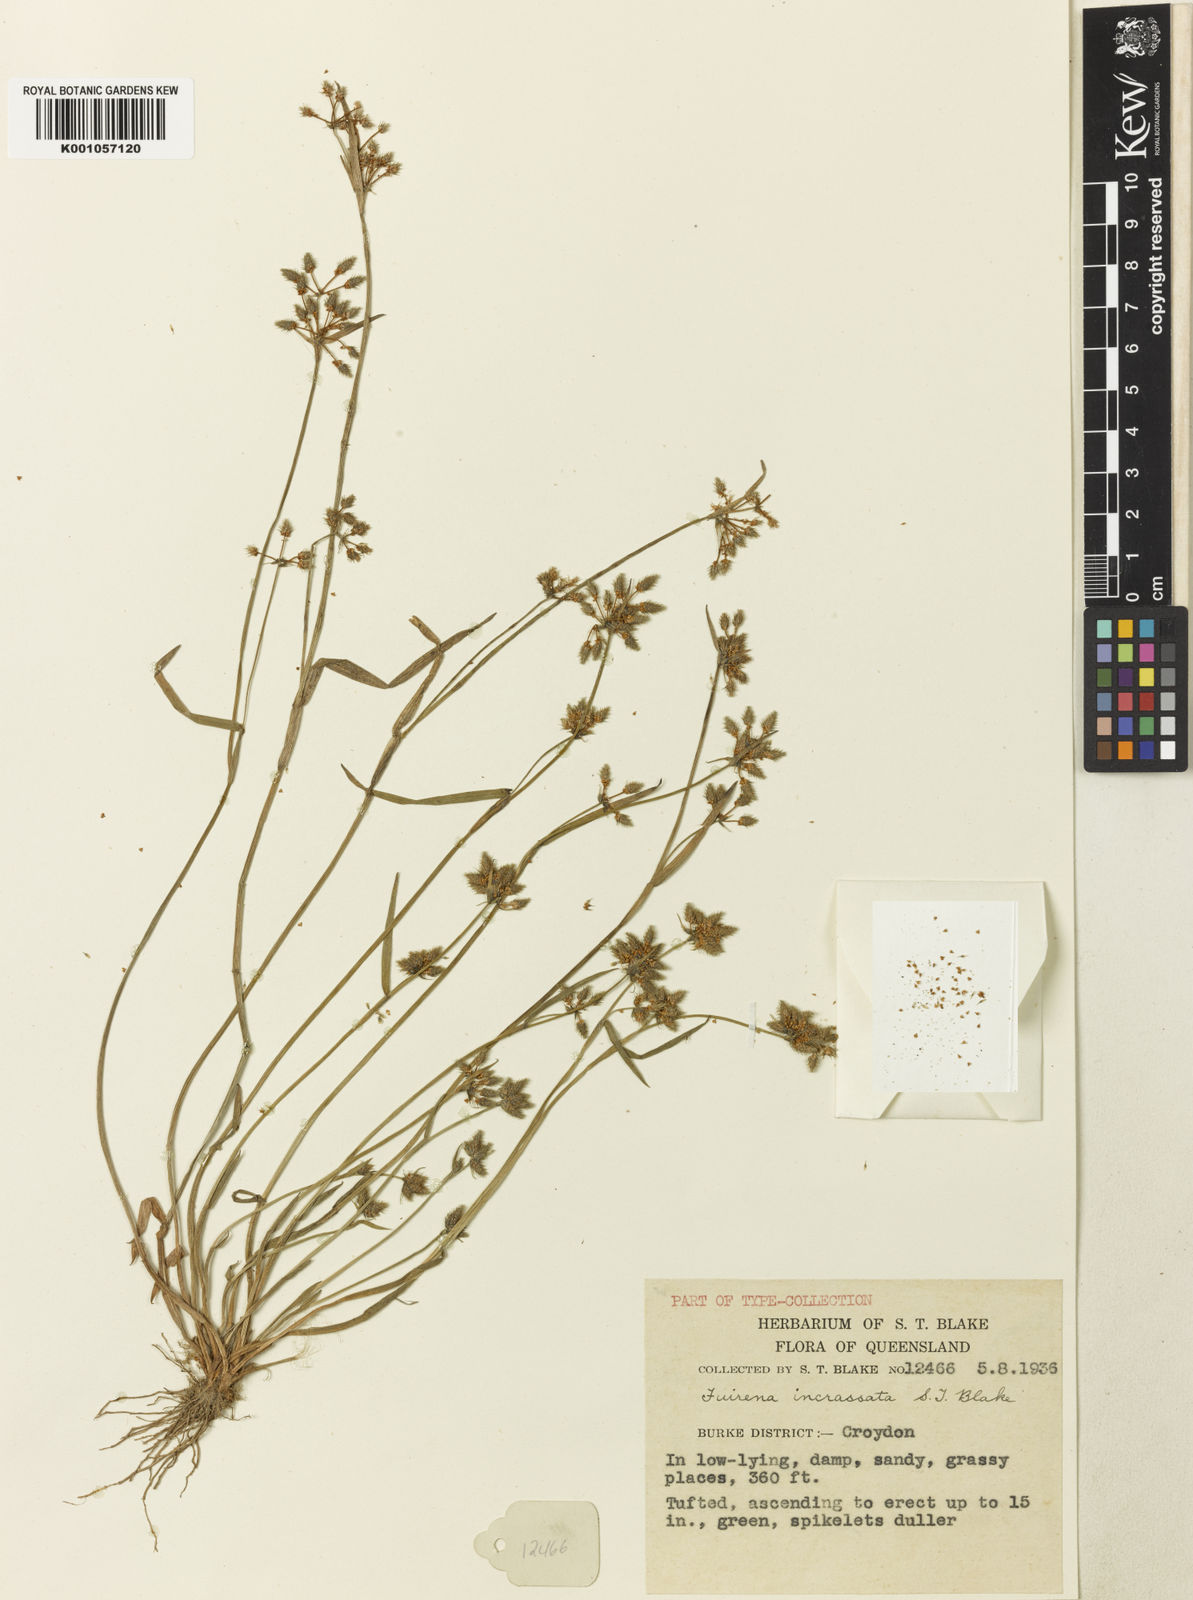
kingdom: Plantae
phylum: Tracheophyta
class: Liliopsida
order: Poales
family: Cyperaceae
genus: Fuirena
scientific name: Fuirena incrassata
